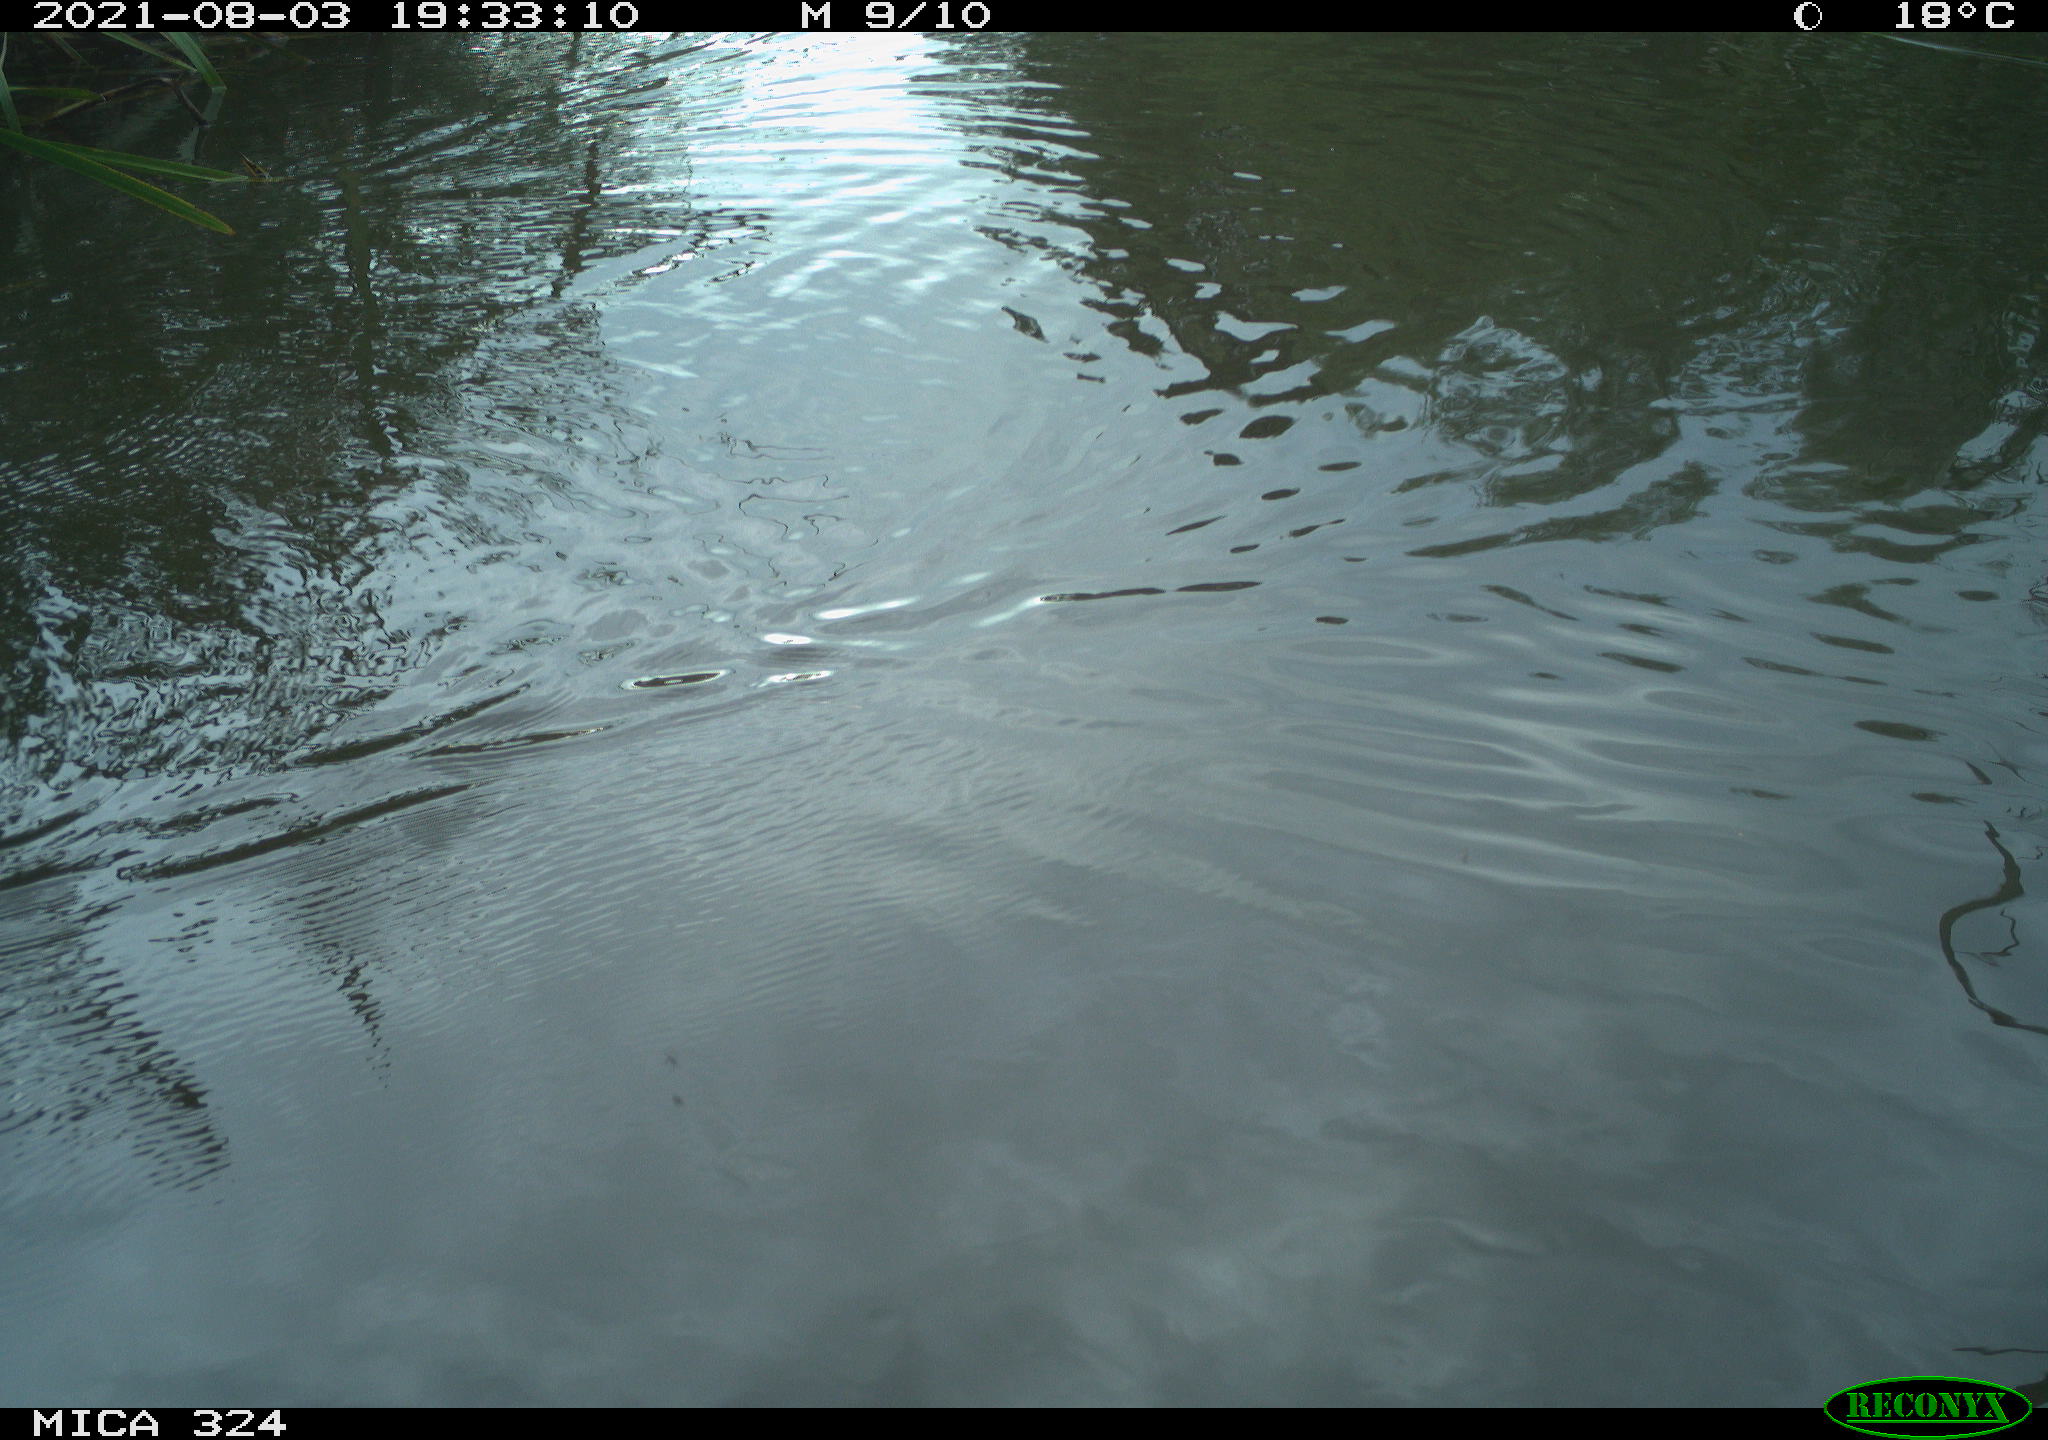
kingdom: Animalia
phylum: Chordata
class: Mammalia
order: Rodentia
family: Cricetidae
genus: Ondatra
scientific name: Ondatra zibethicus
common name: Muskrat
